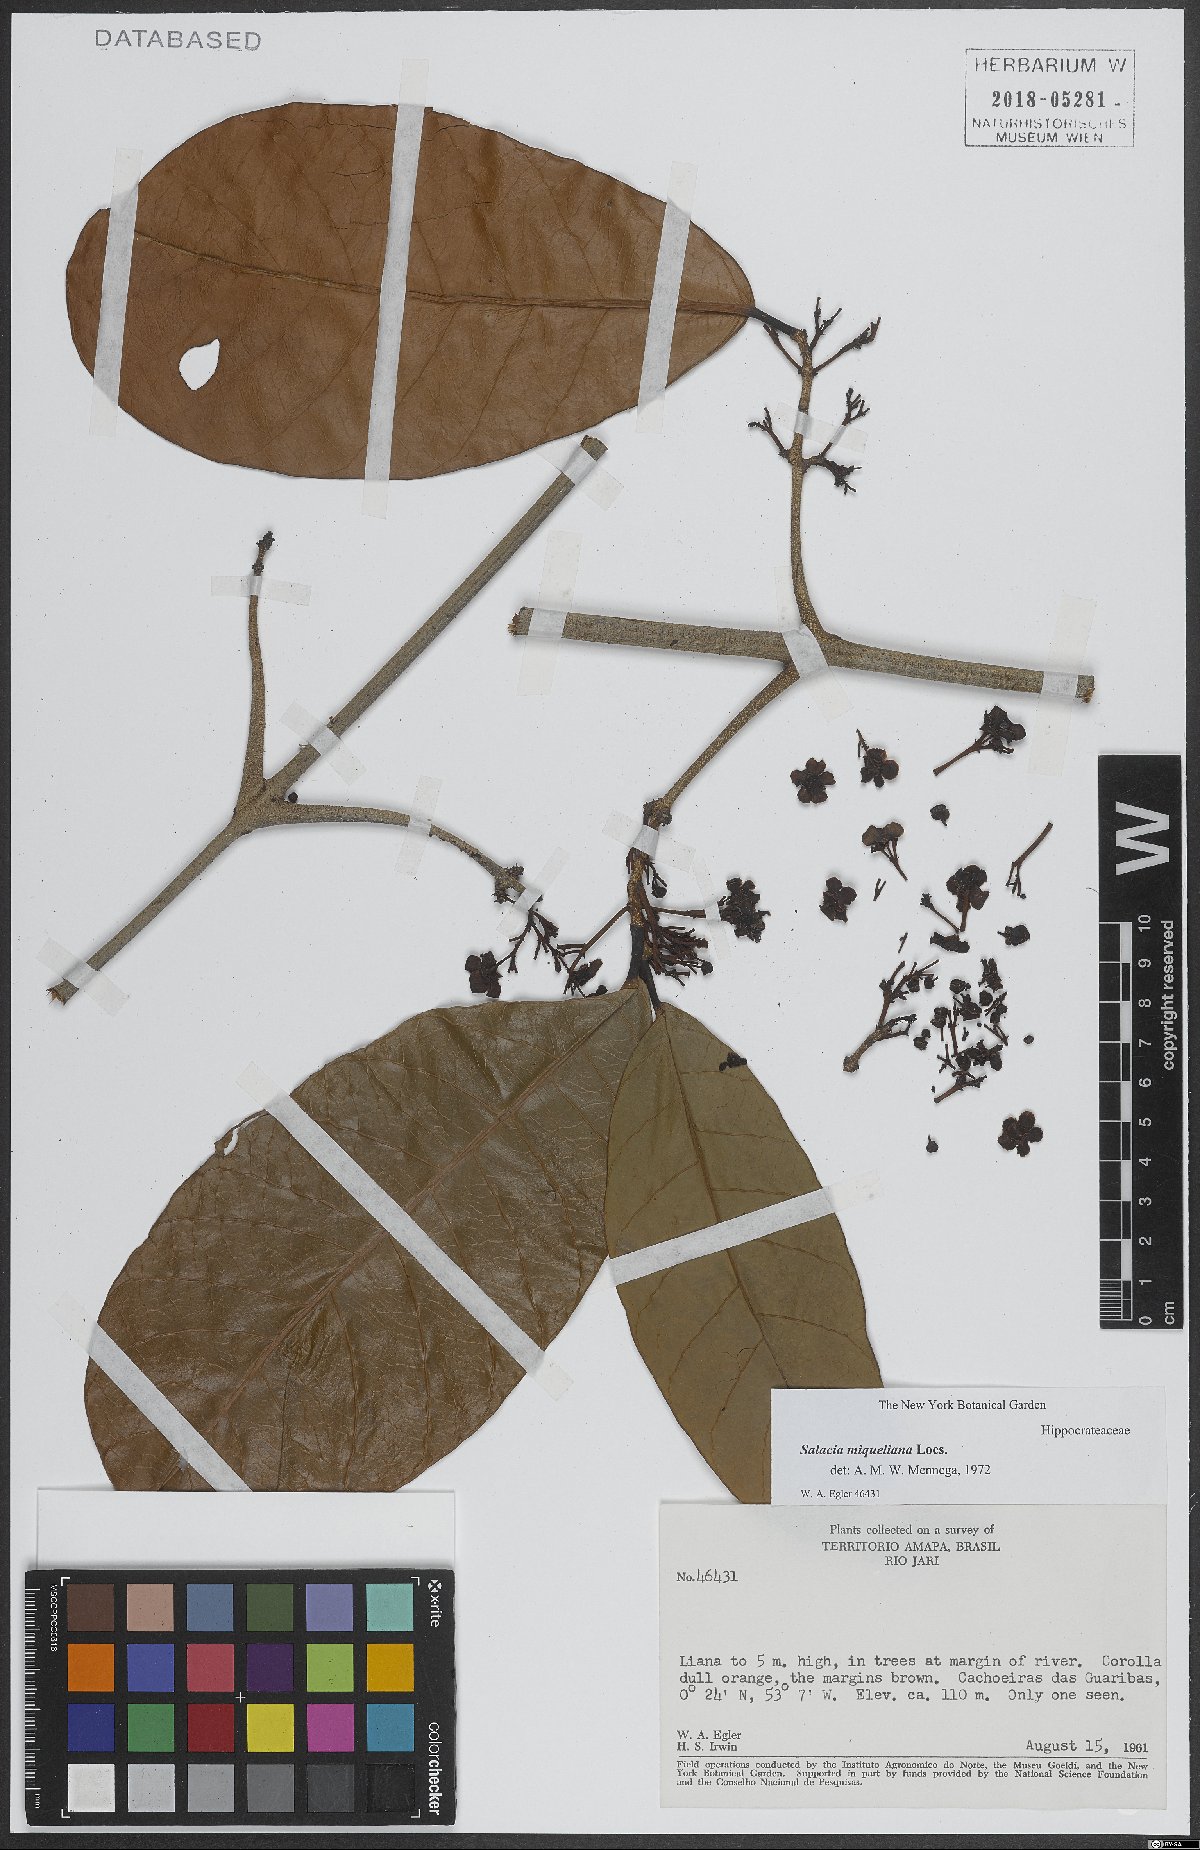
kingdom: Plantae
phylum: Tracheophyta
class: Magnoliopsida
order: Celastrales
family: Celastraceae
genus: Salacia
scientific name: Salacia miqueliana
